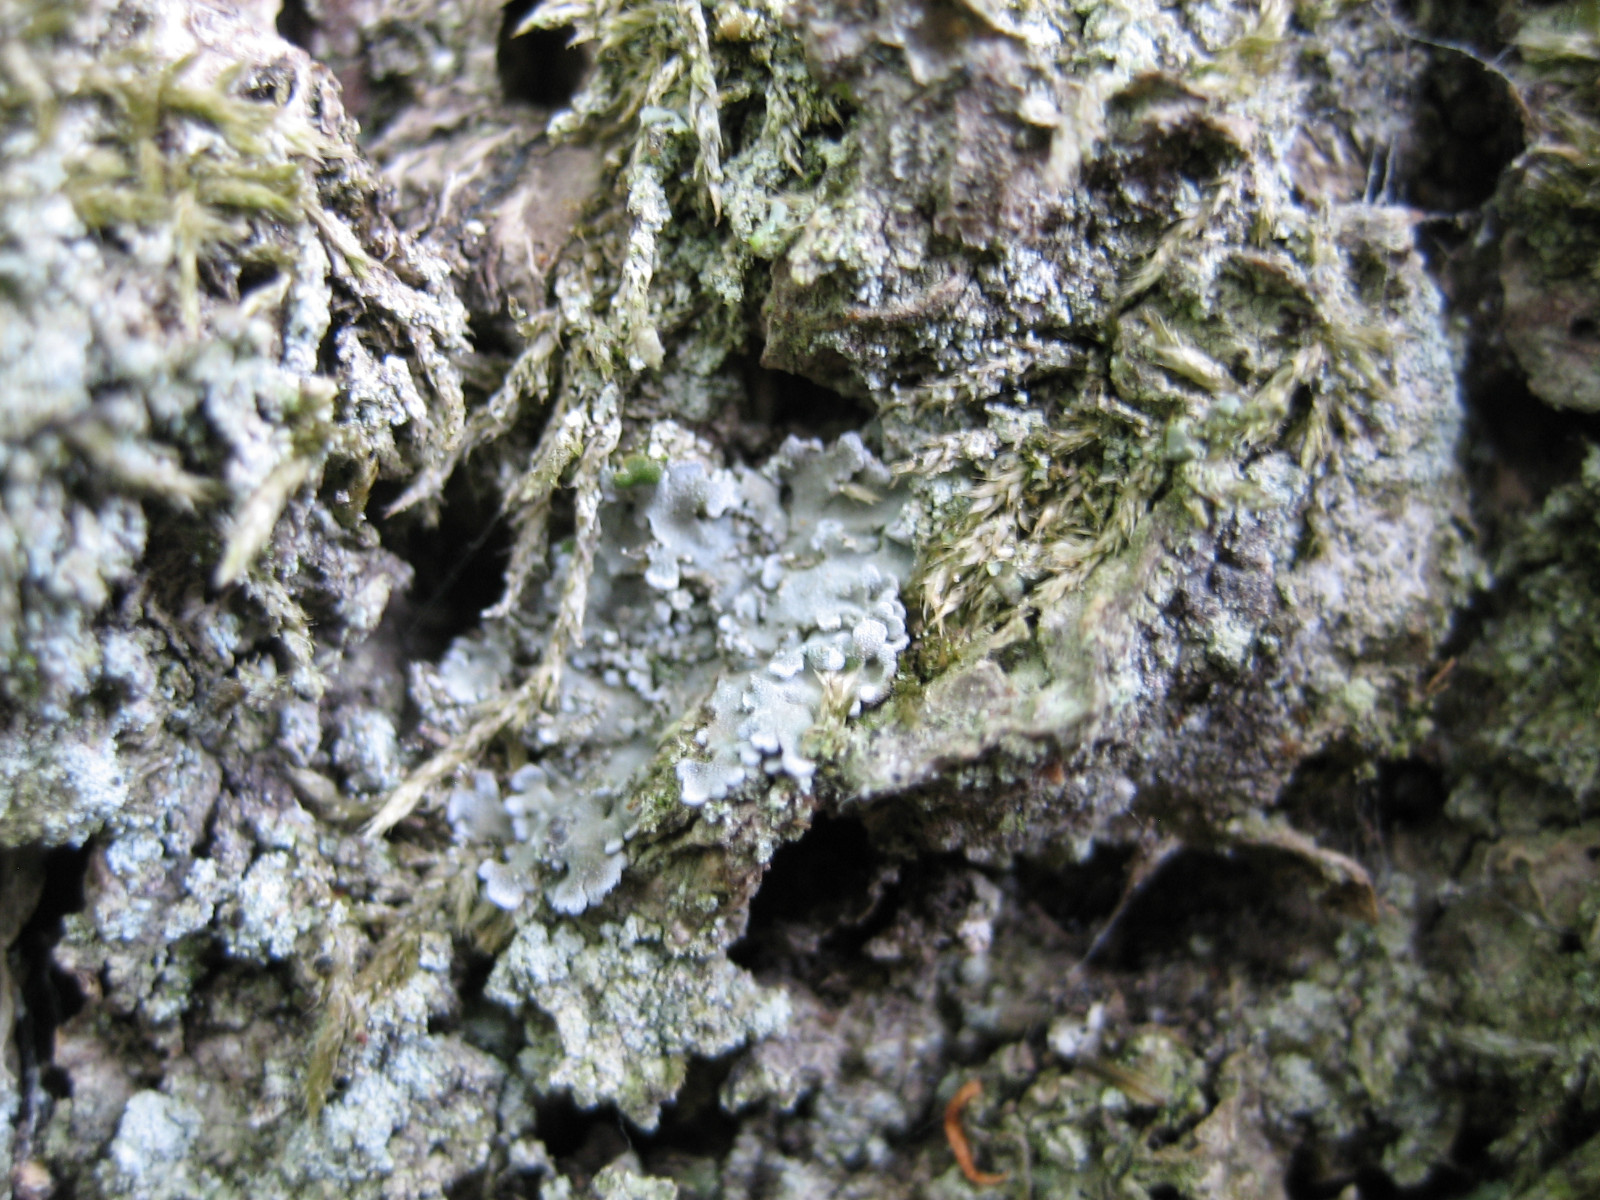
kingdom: Fungi
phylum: Ascomycota
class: Lecanoromycetes
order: Caliciales
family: Physciaceae
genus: Physconia
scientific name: Physconia perisidiosa
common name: liden dugrosetlav
